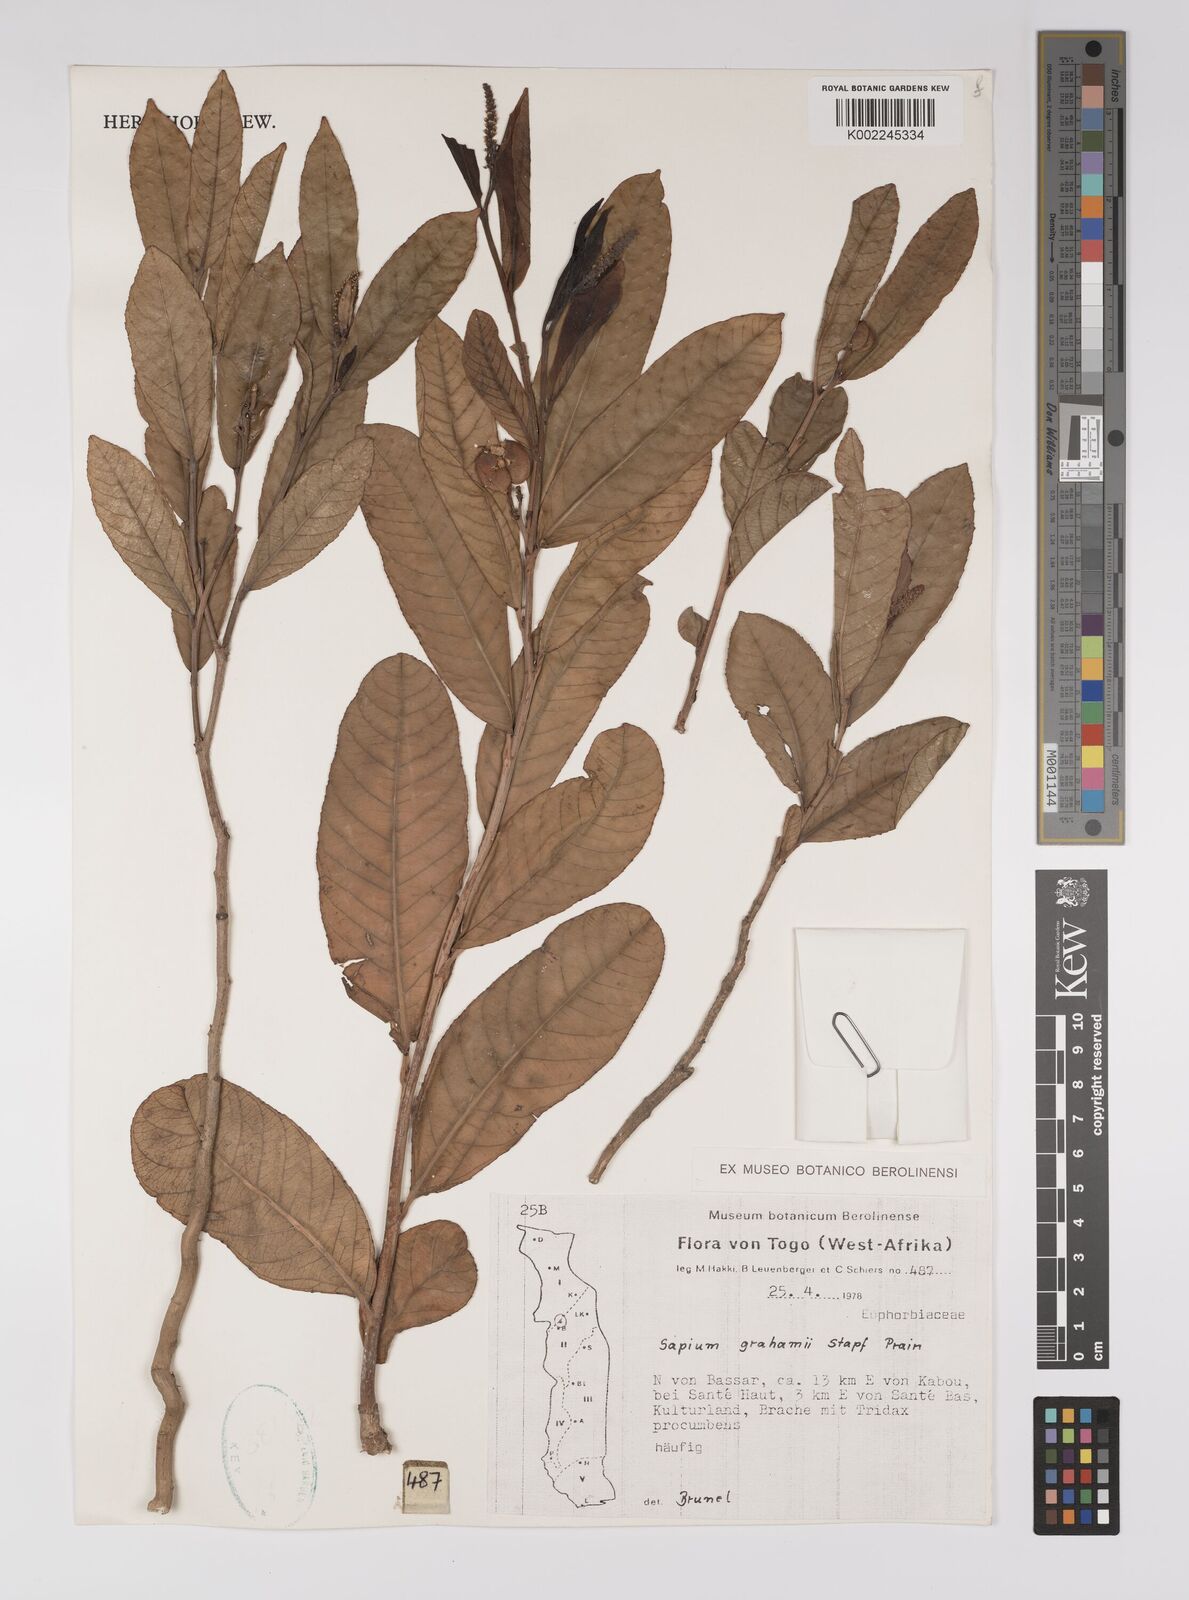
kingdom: Plantae
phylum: Tracheophyta
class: Magnoliopsida
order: Malpighiales
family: Euphorbiaceae
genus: Excoecaria
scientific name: Excoecaria grahamii
